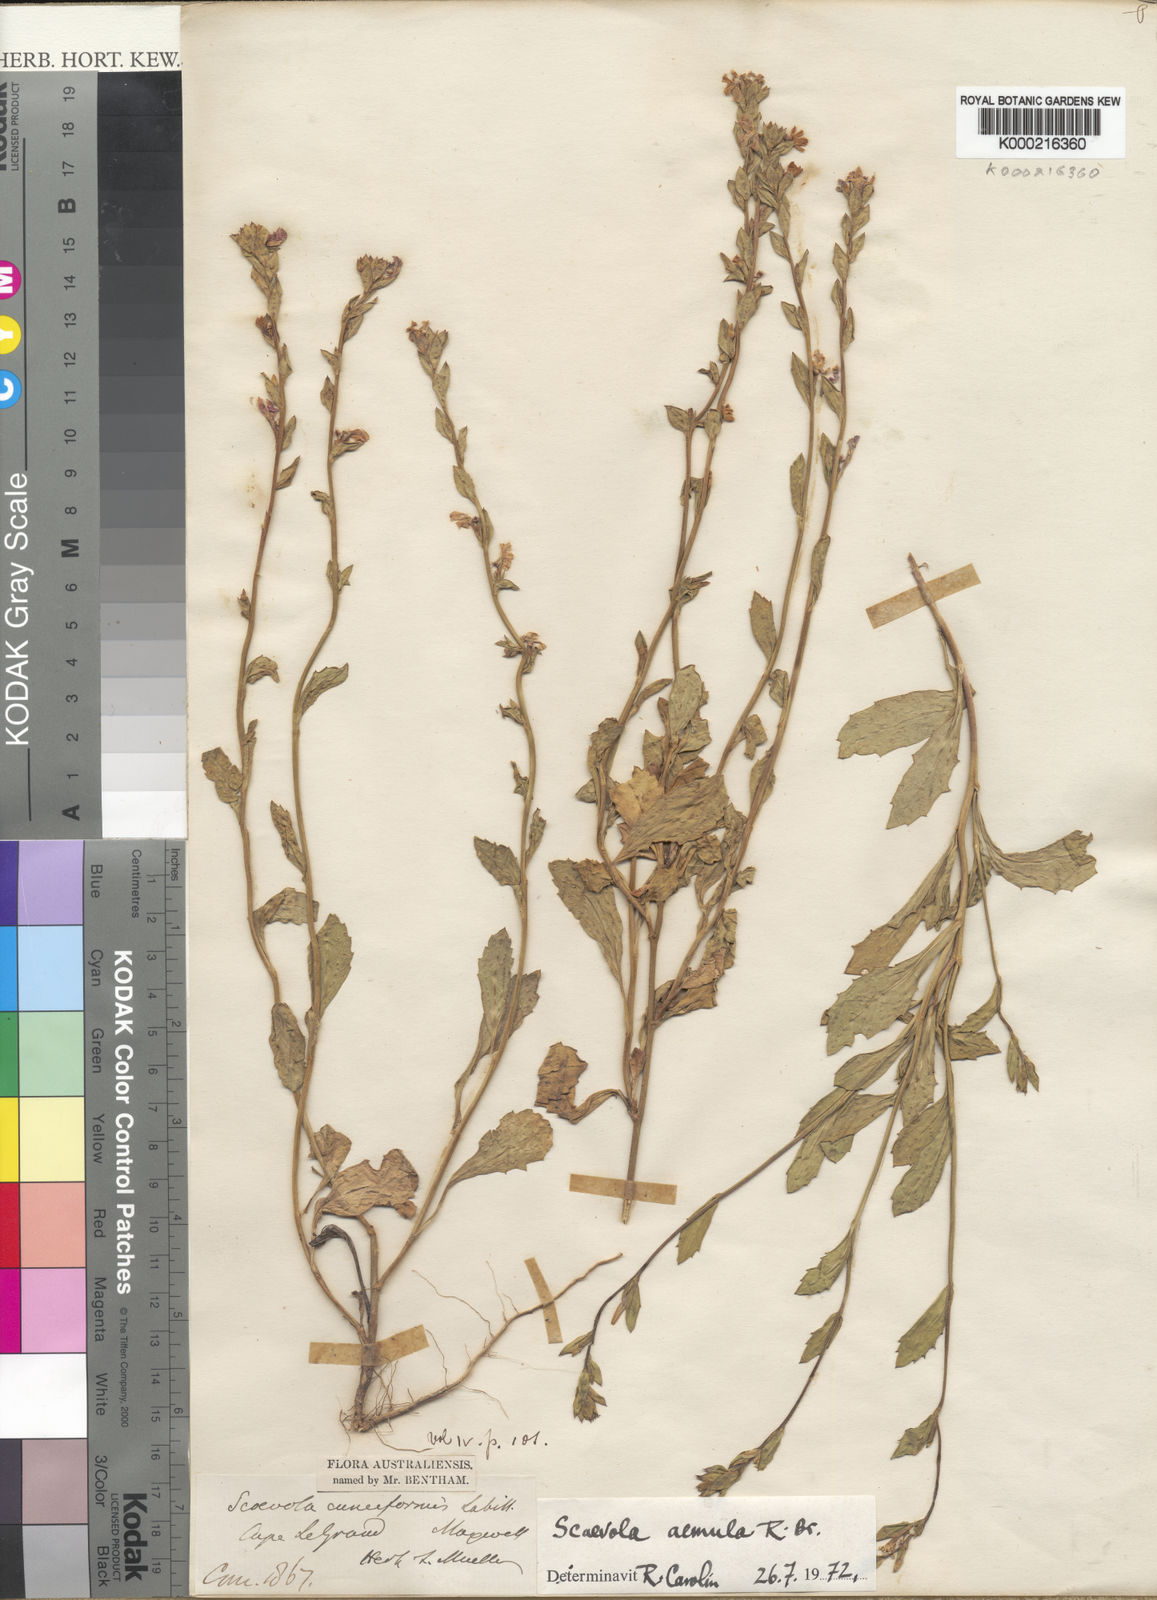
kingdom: Plantae
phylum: Tracheophyta
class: Magnoliopsida
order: Asterales
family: Goodeniaceae
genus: Scaevola
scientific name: Scaevola aemula
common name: Common fanflower
